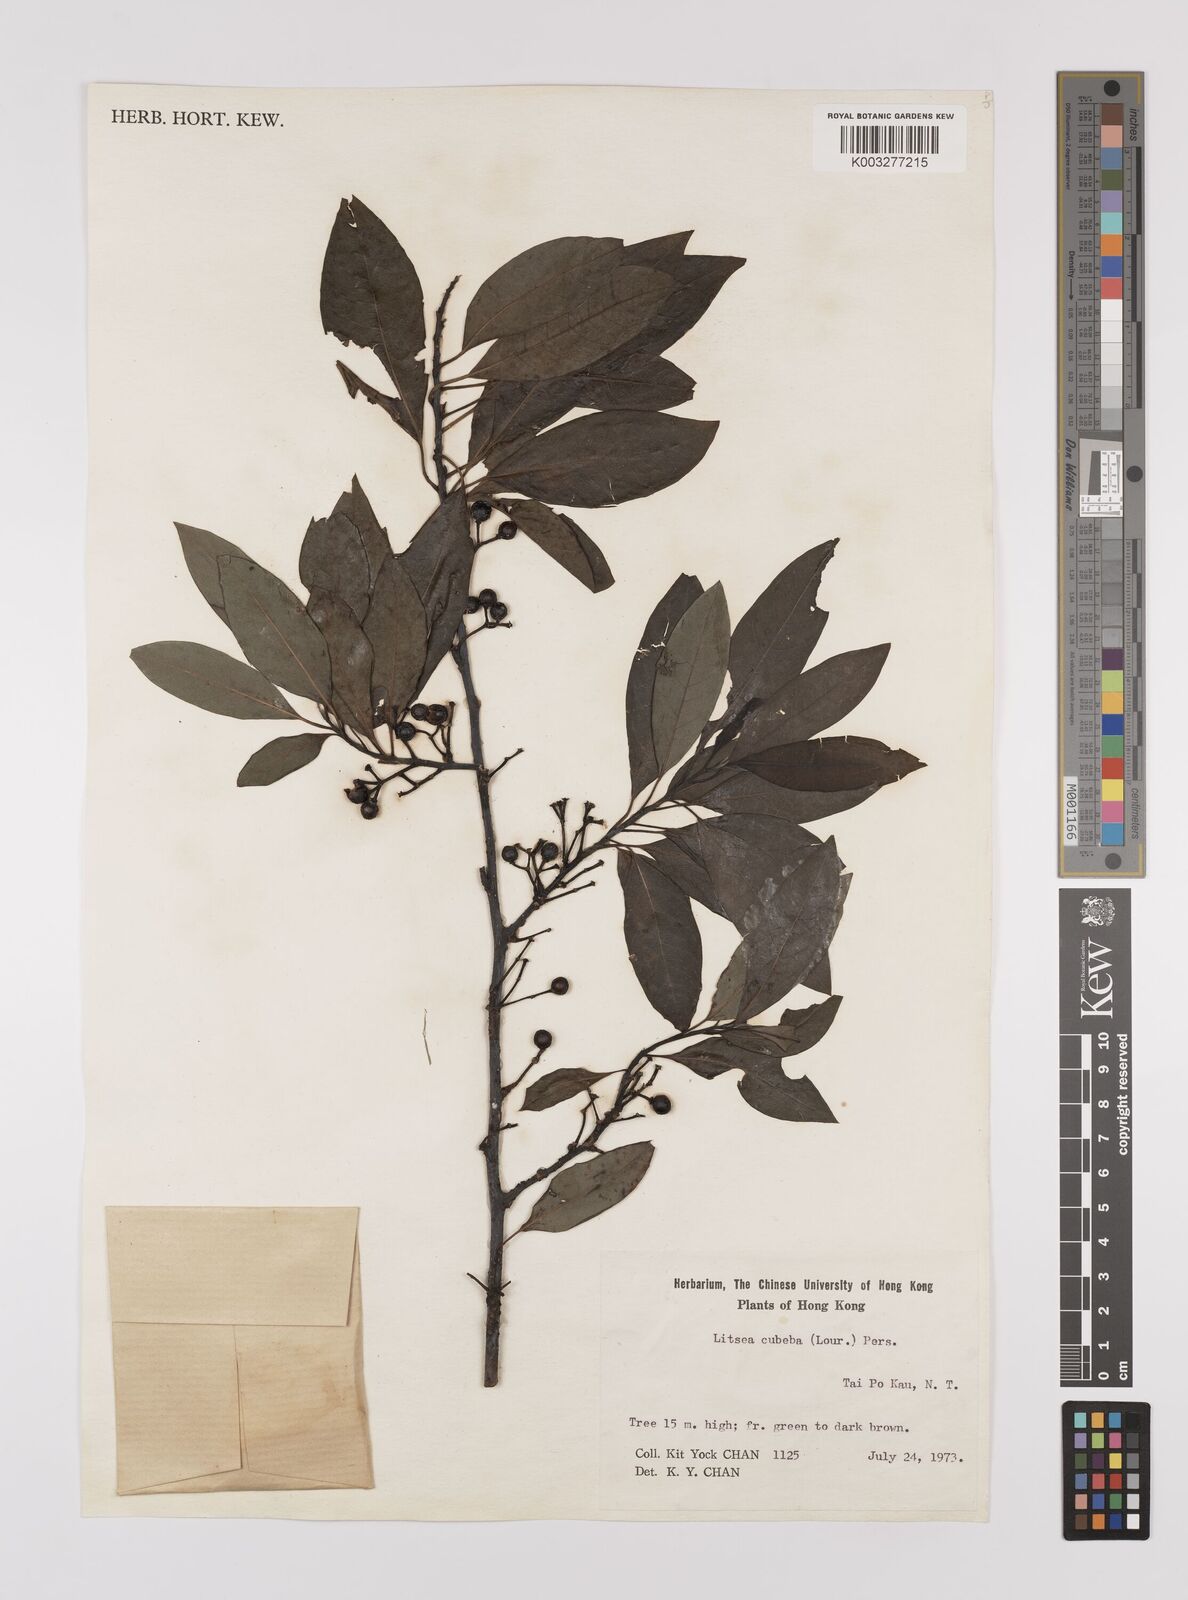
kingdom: Plantae
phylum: Tracheophyta
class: Magnoliopsida
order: Laurales
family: Lauraceae
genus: Litsea
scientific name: Litsea cubeba
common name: Mountain-pepper
